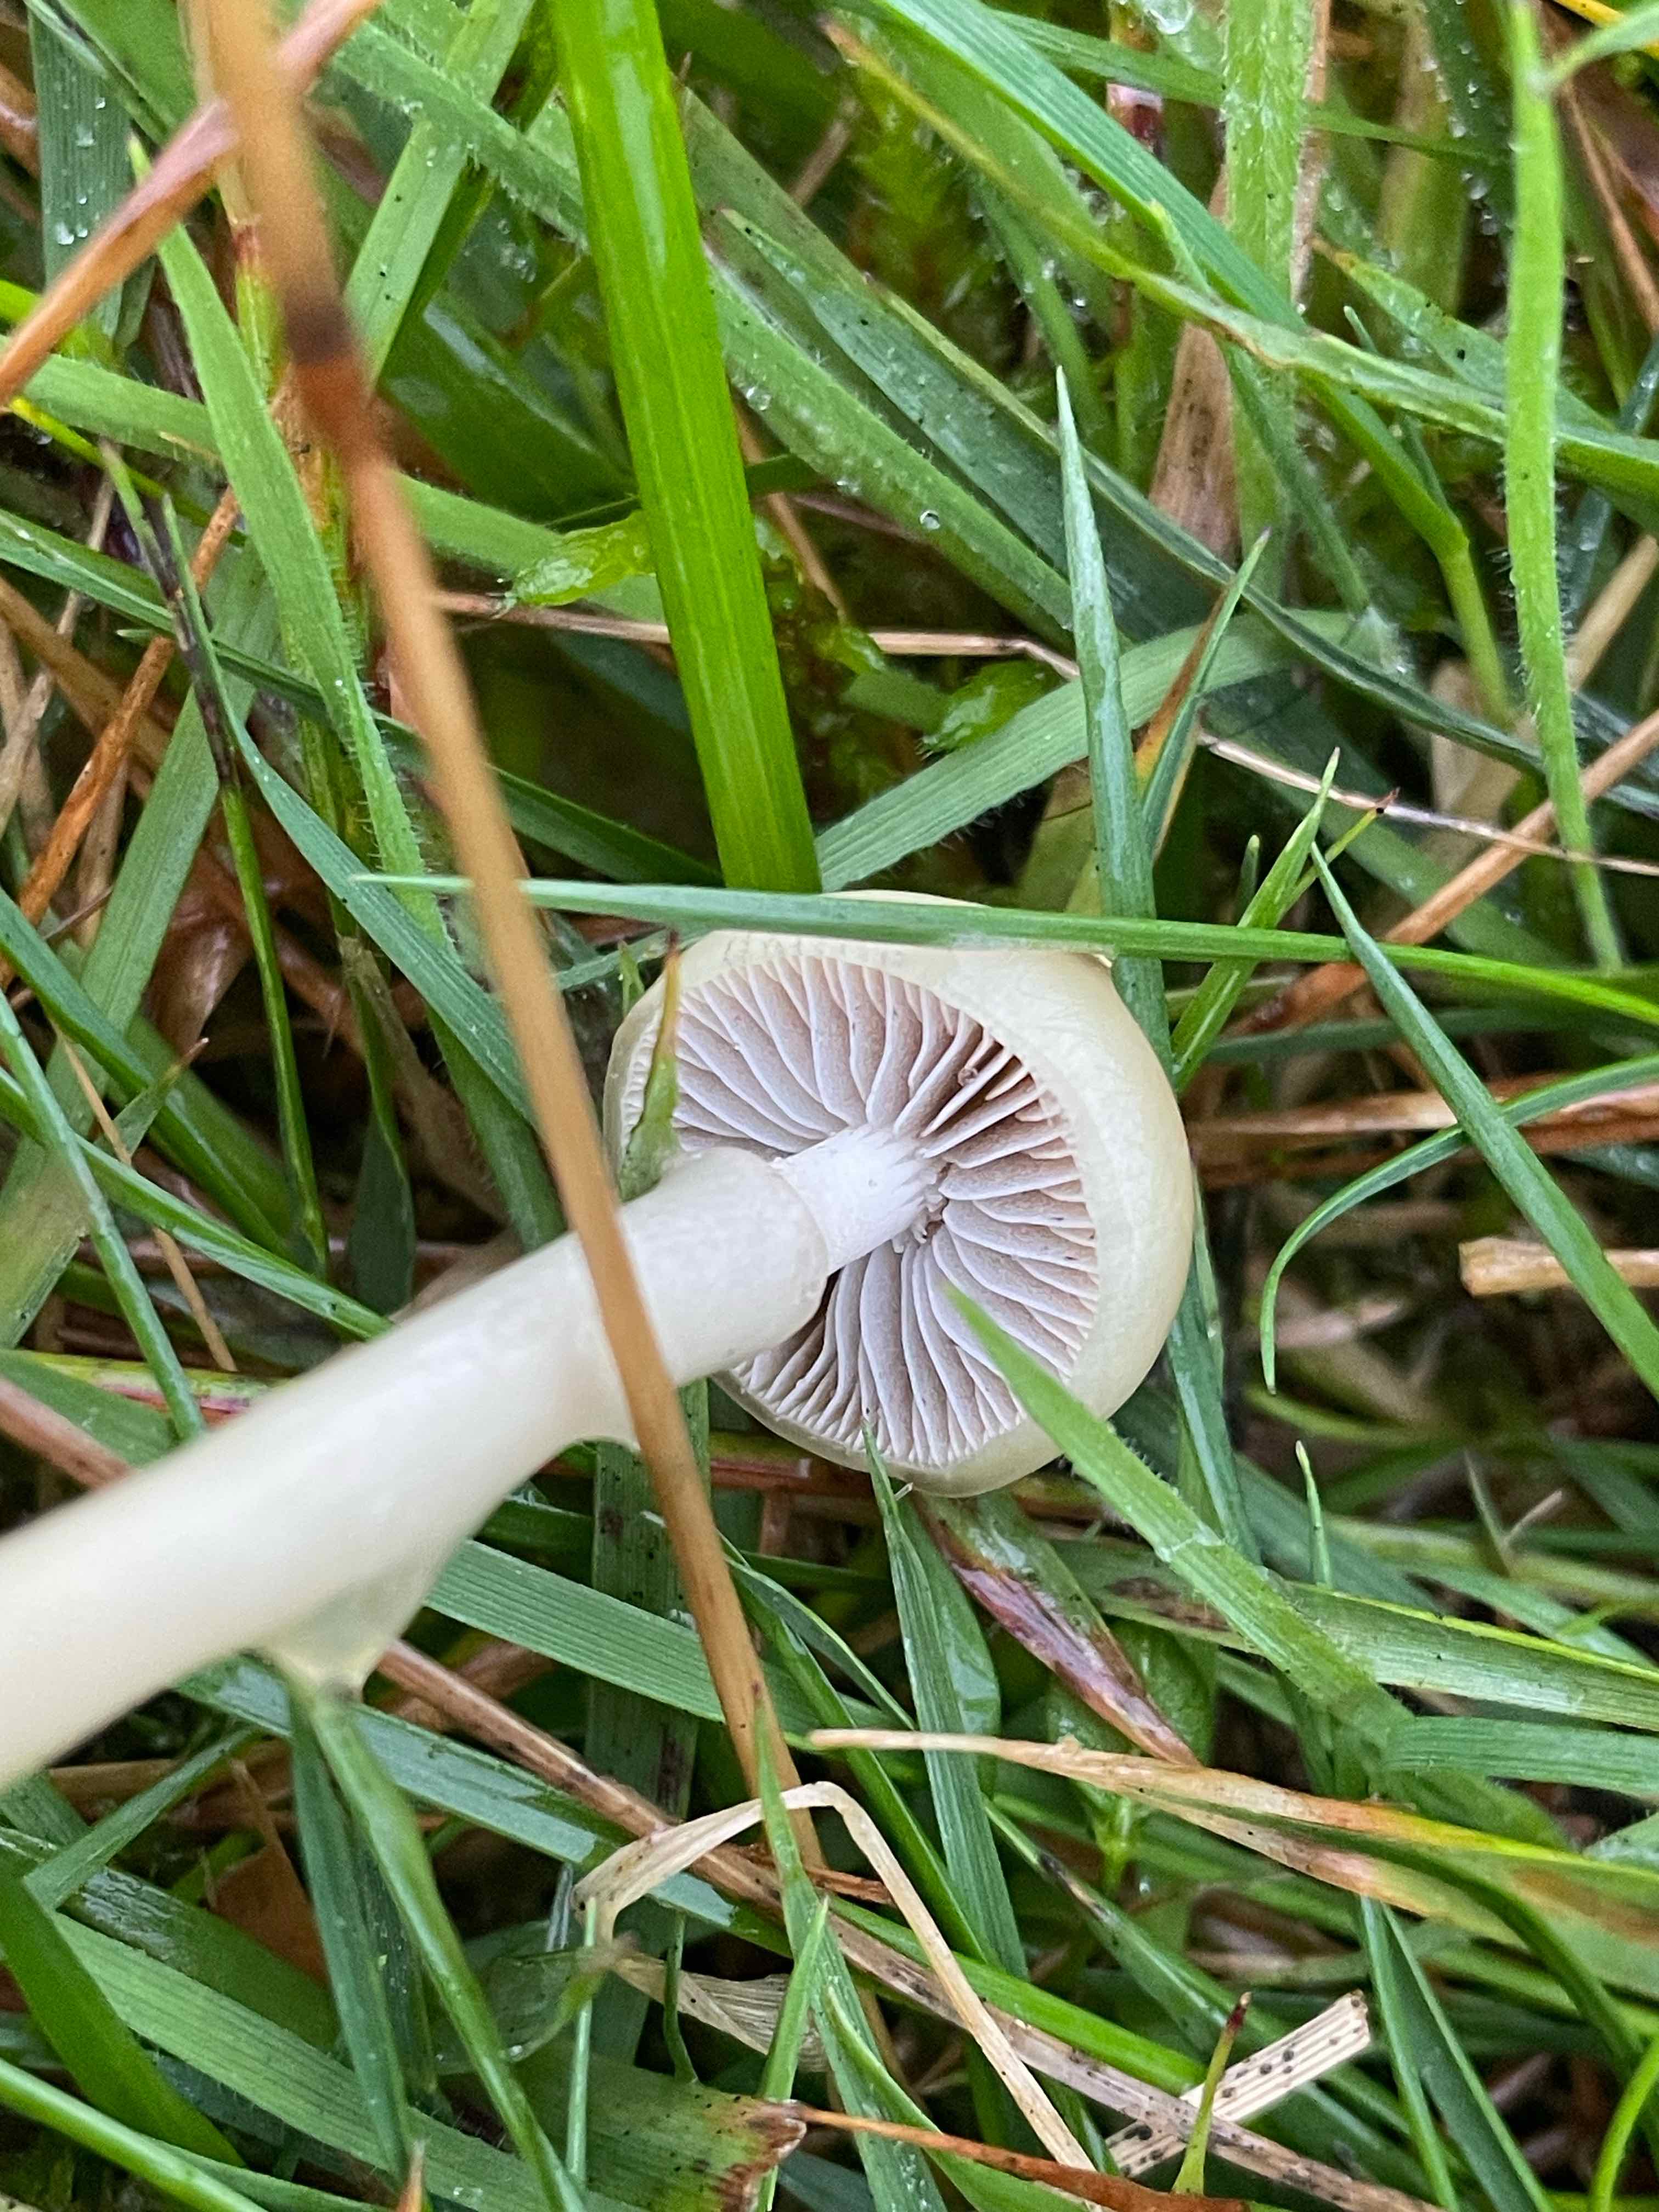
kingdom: Fungi
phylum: Basidiomycota
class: Agaricomycetes
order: Agaricales
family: Strophariaceae
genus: Protostropharia
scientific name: Protostropharia
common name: bredblad
